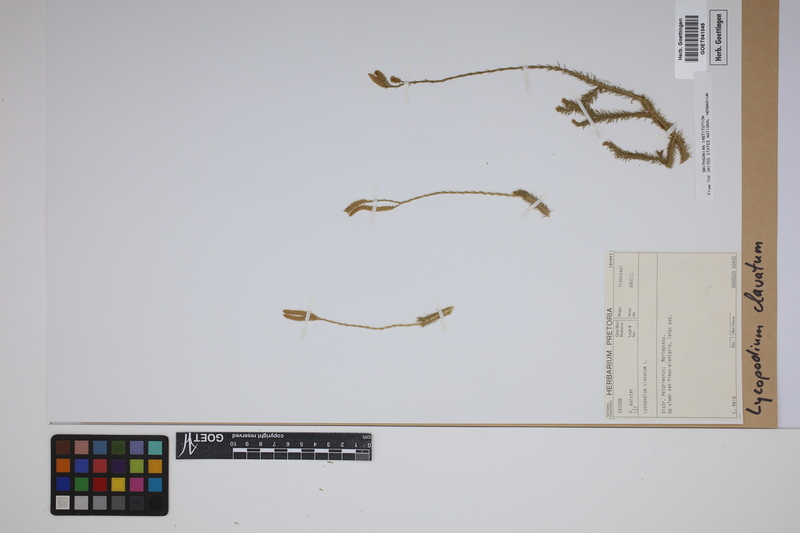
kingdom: Plantae
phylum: Tracheophyta
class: Lycopodiopsida
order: Lycopodiales
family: Lycopodiaceae
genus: Lycopodium
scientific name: Lycopodium clavatum
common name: Stag's-horn clubmoss
